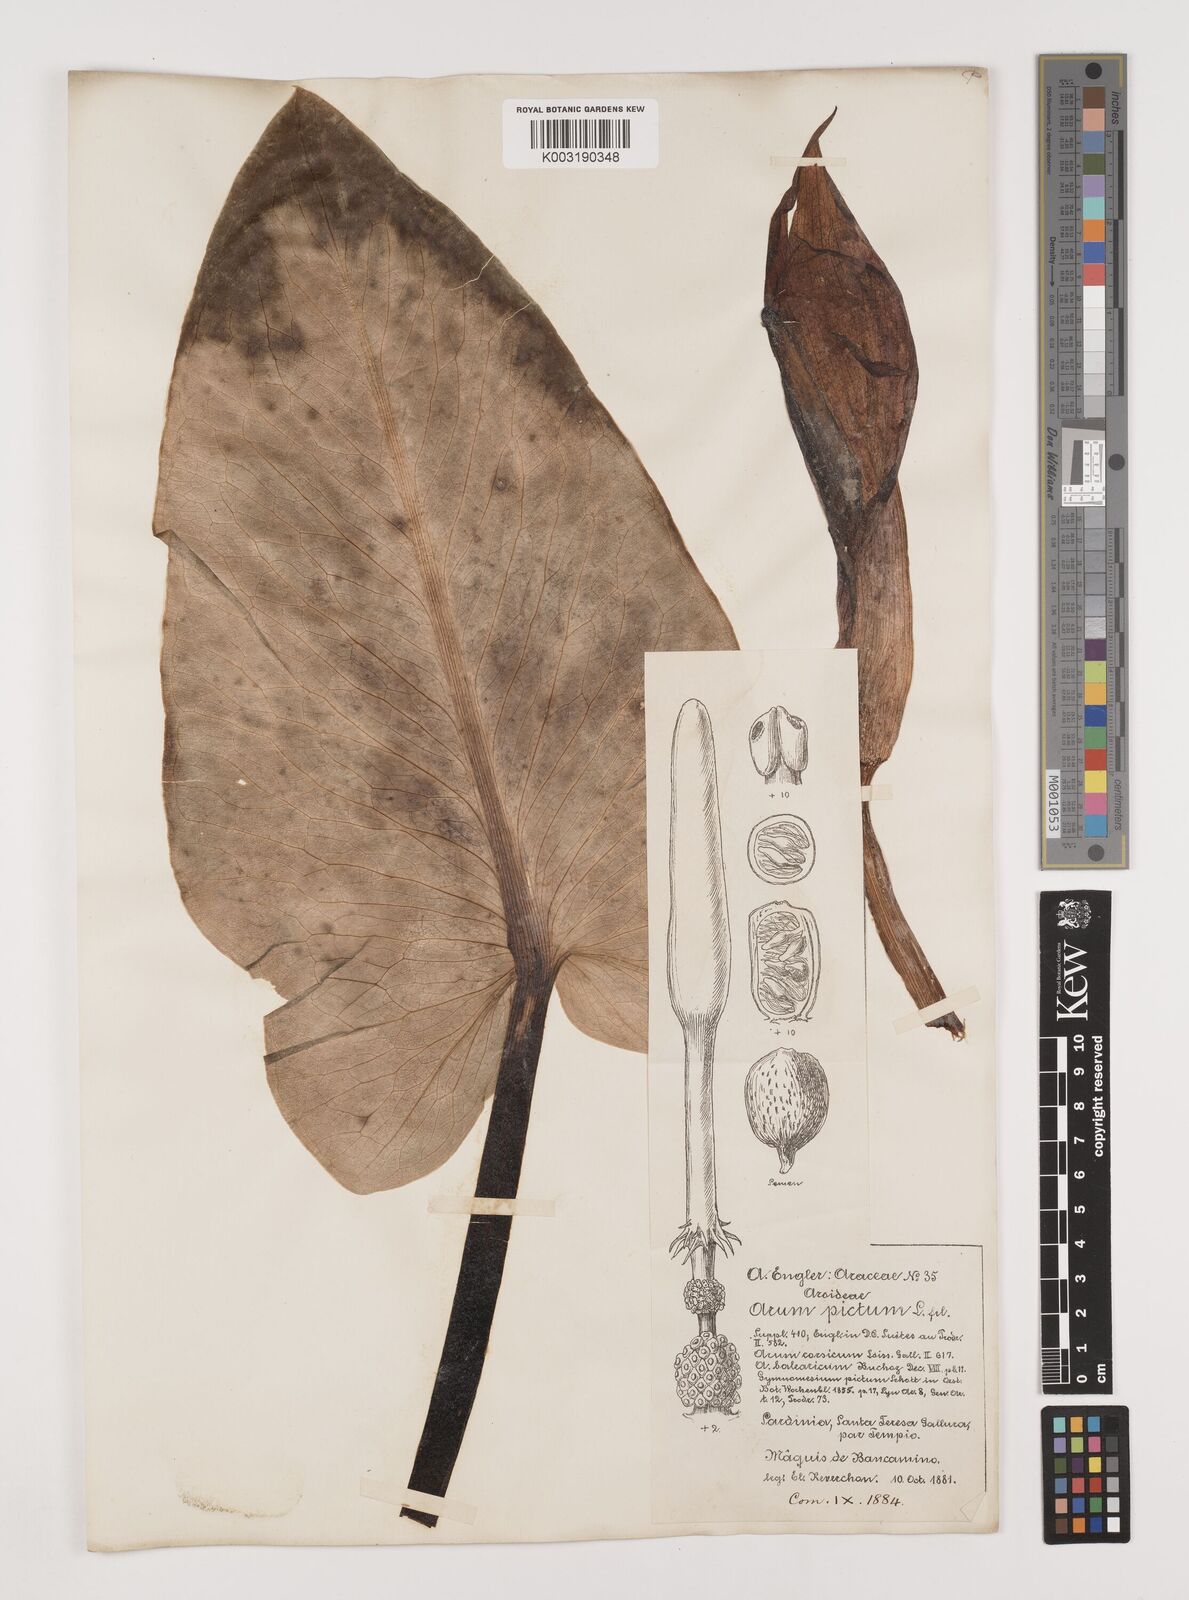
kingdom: Plantae
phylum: Tracheophyta
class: Liliopsida
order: Alismatales
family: Araceae
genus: Arum
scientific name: Arum pictum
